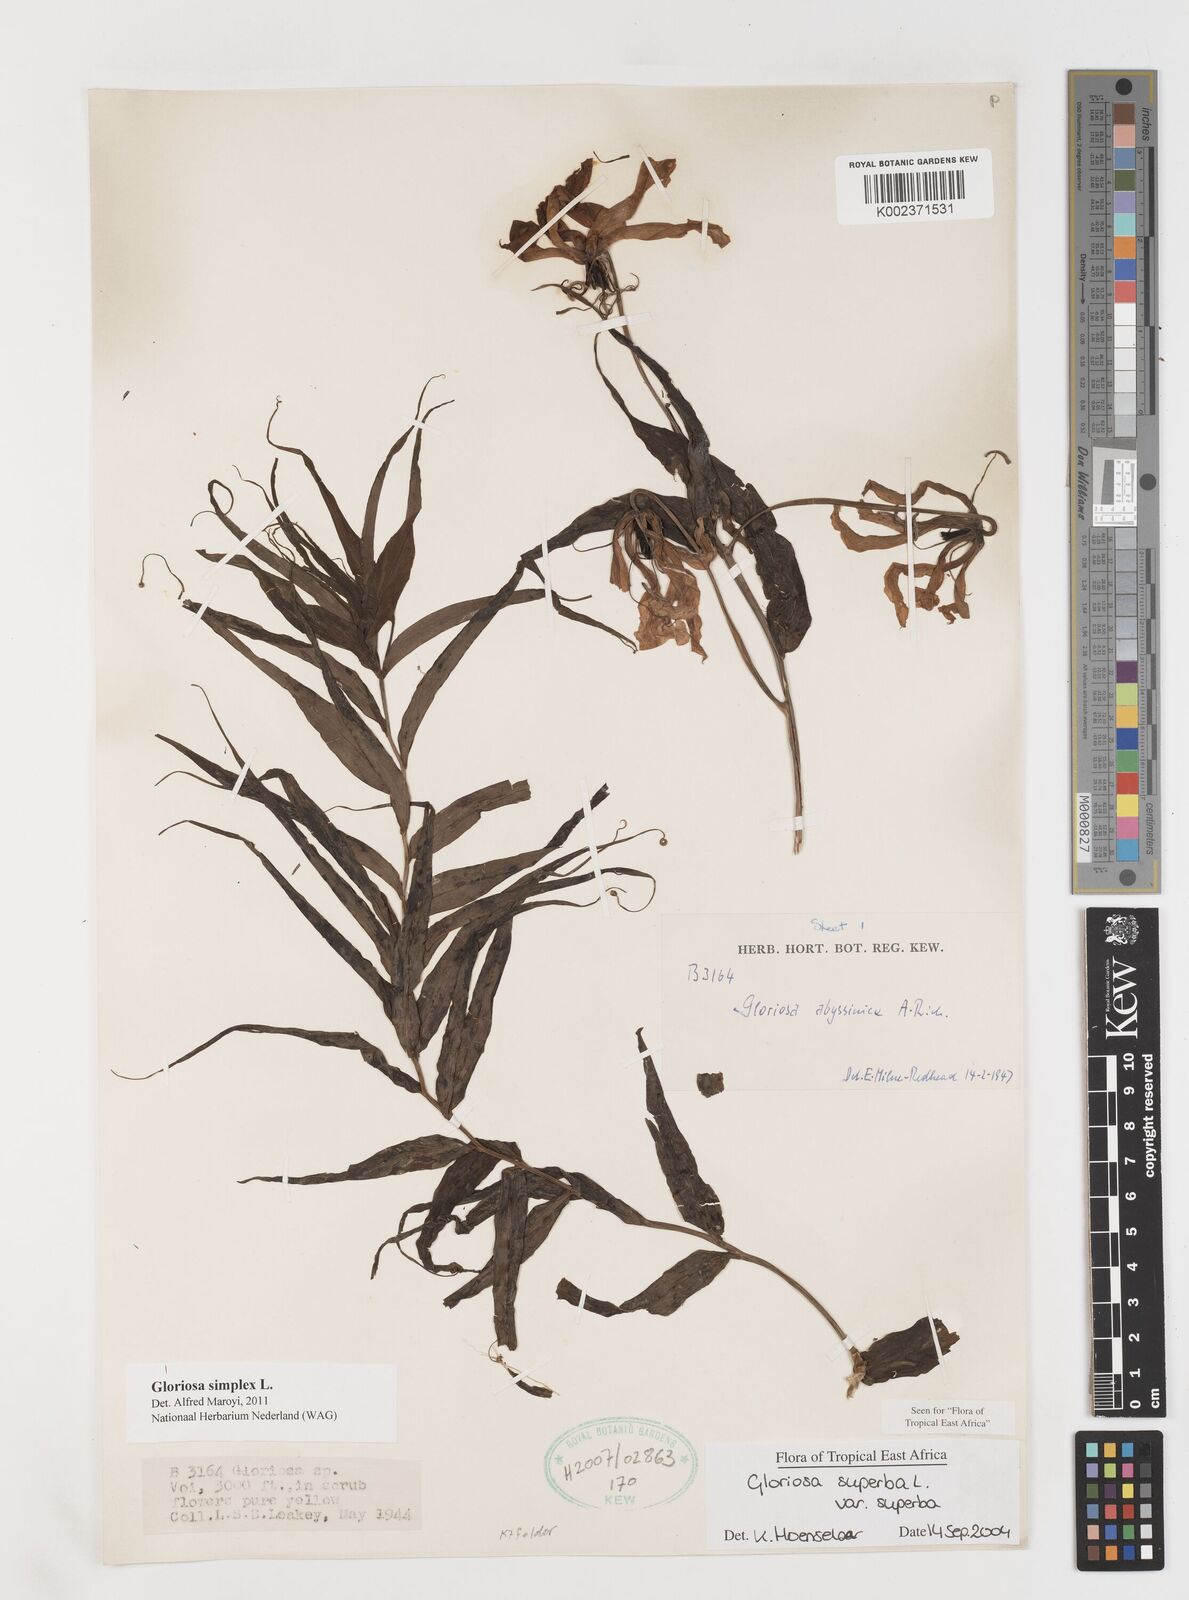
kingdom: Plantae
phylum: Tracheophyta
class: Liliopsida
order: Liliales
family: Colchicaceae
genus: Gloriosa
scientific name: Gloriosa simplex
